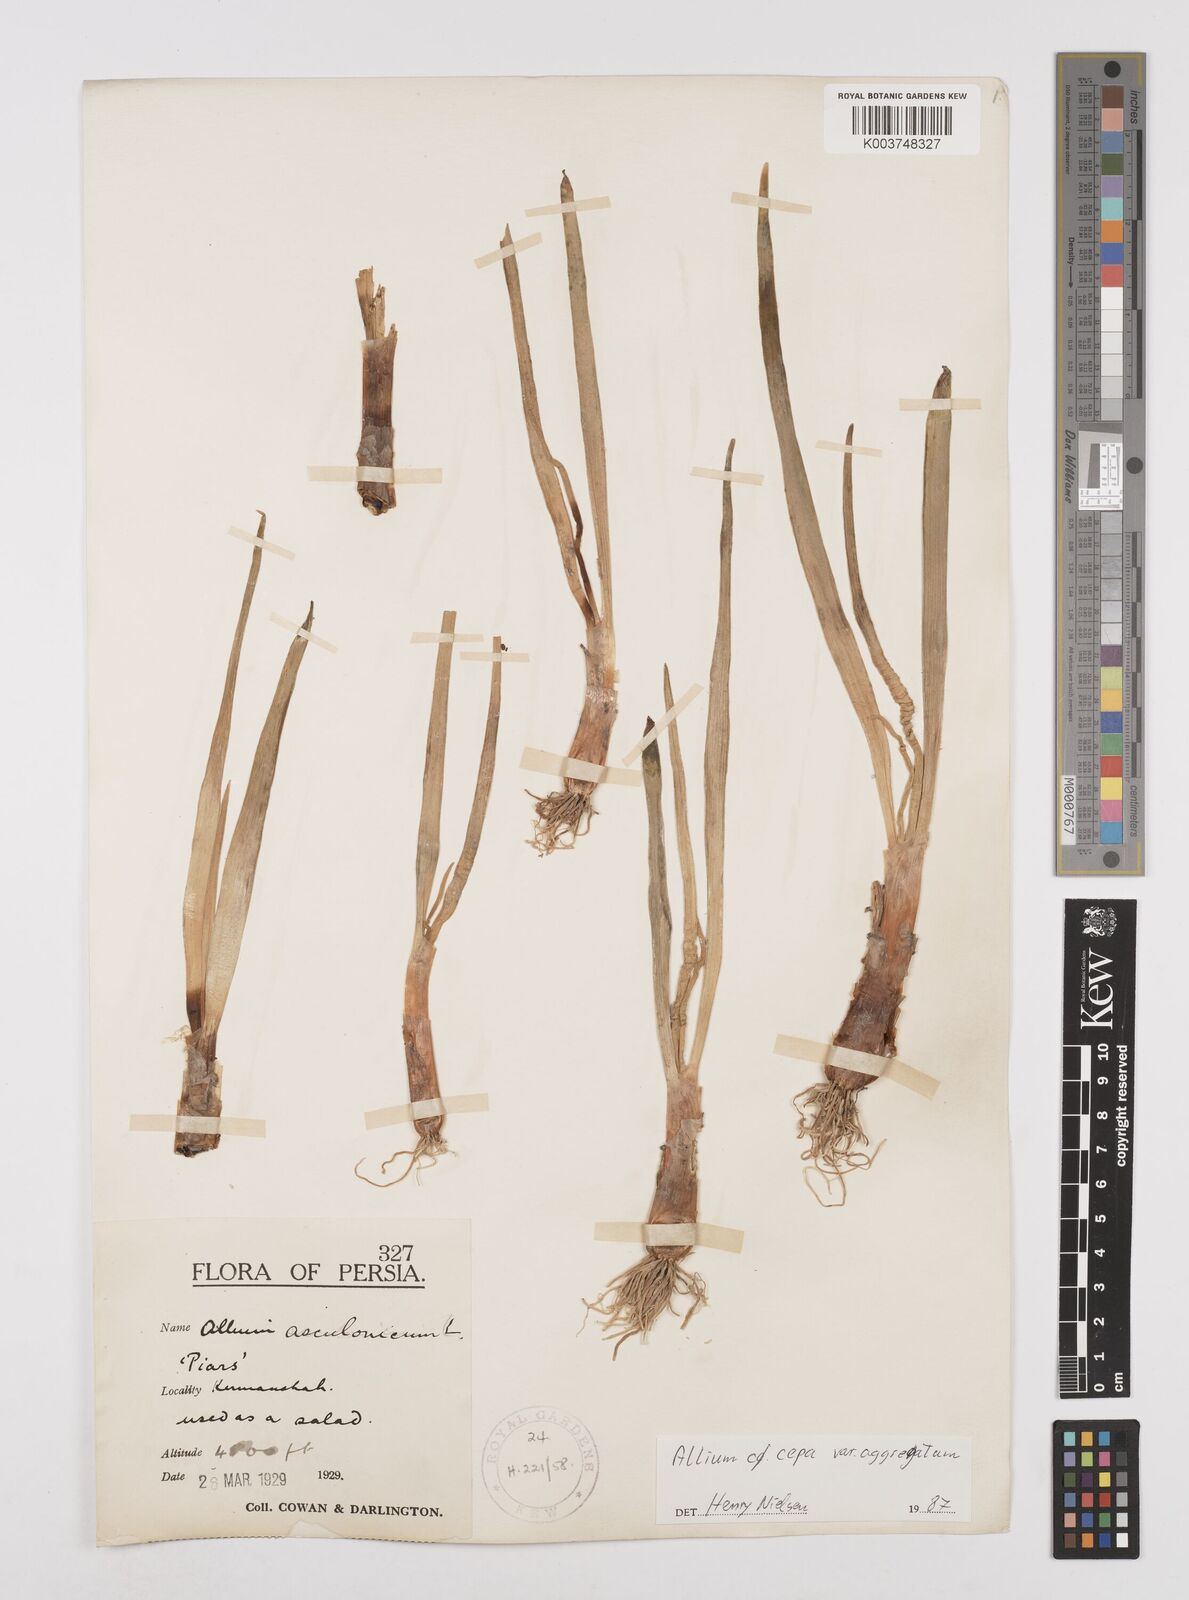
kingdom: Plantae
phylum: Tracheophyta
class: Liliopsida
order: Asparagales
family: Amaryllidaceae
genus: Allium
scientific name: Allium cepa
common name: Onion
